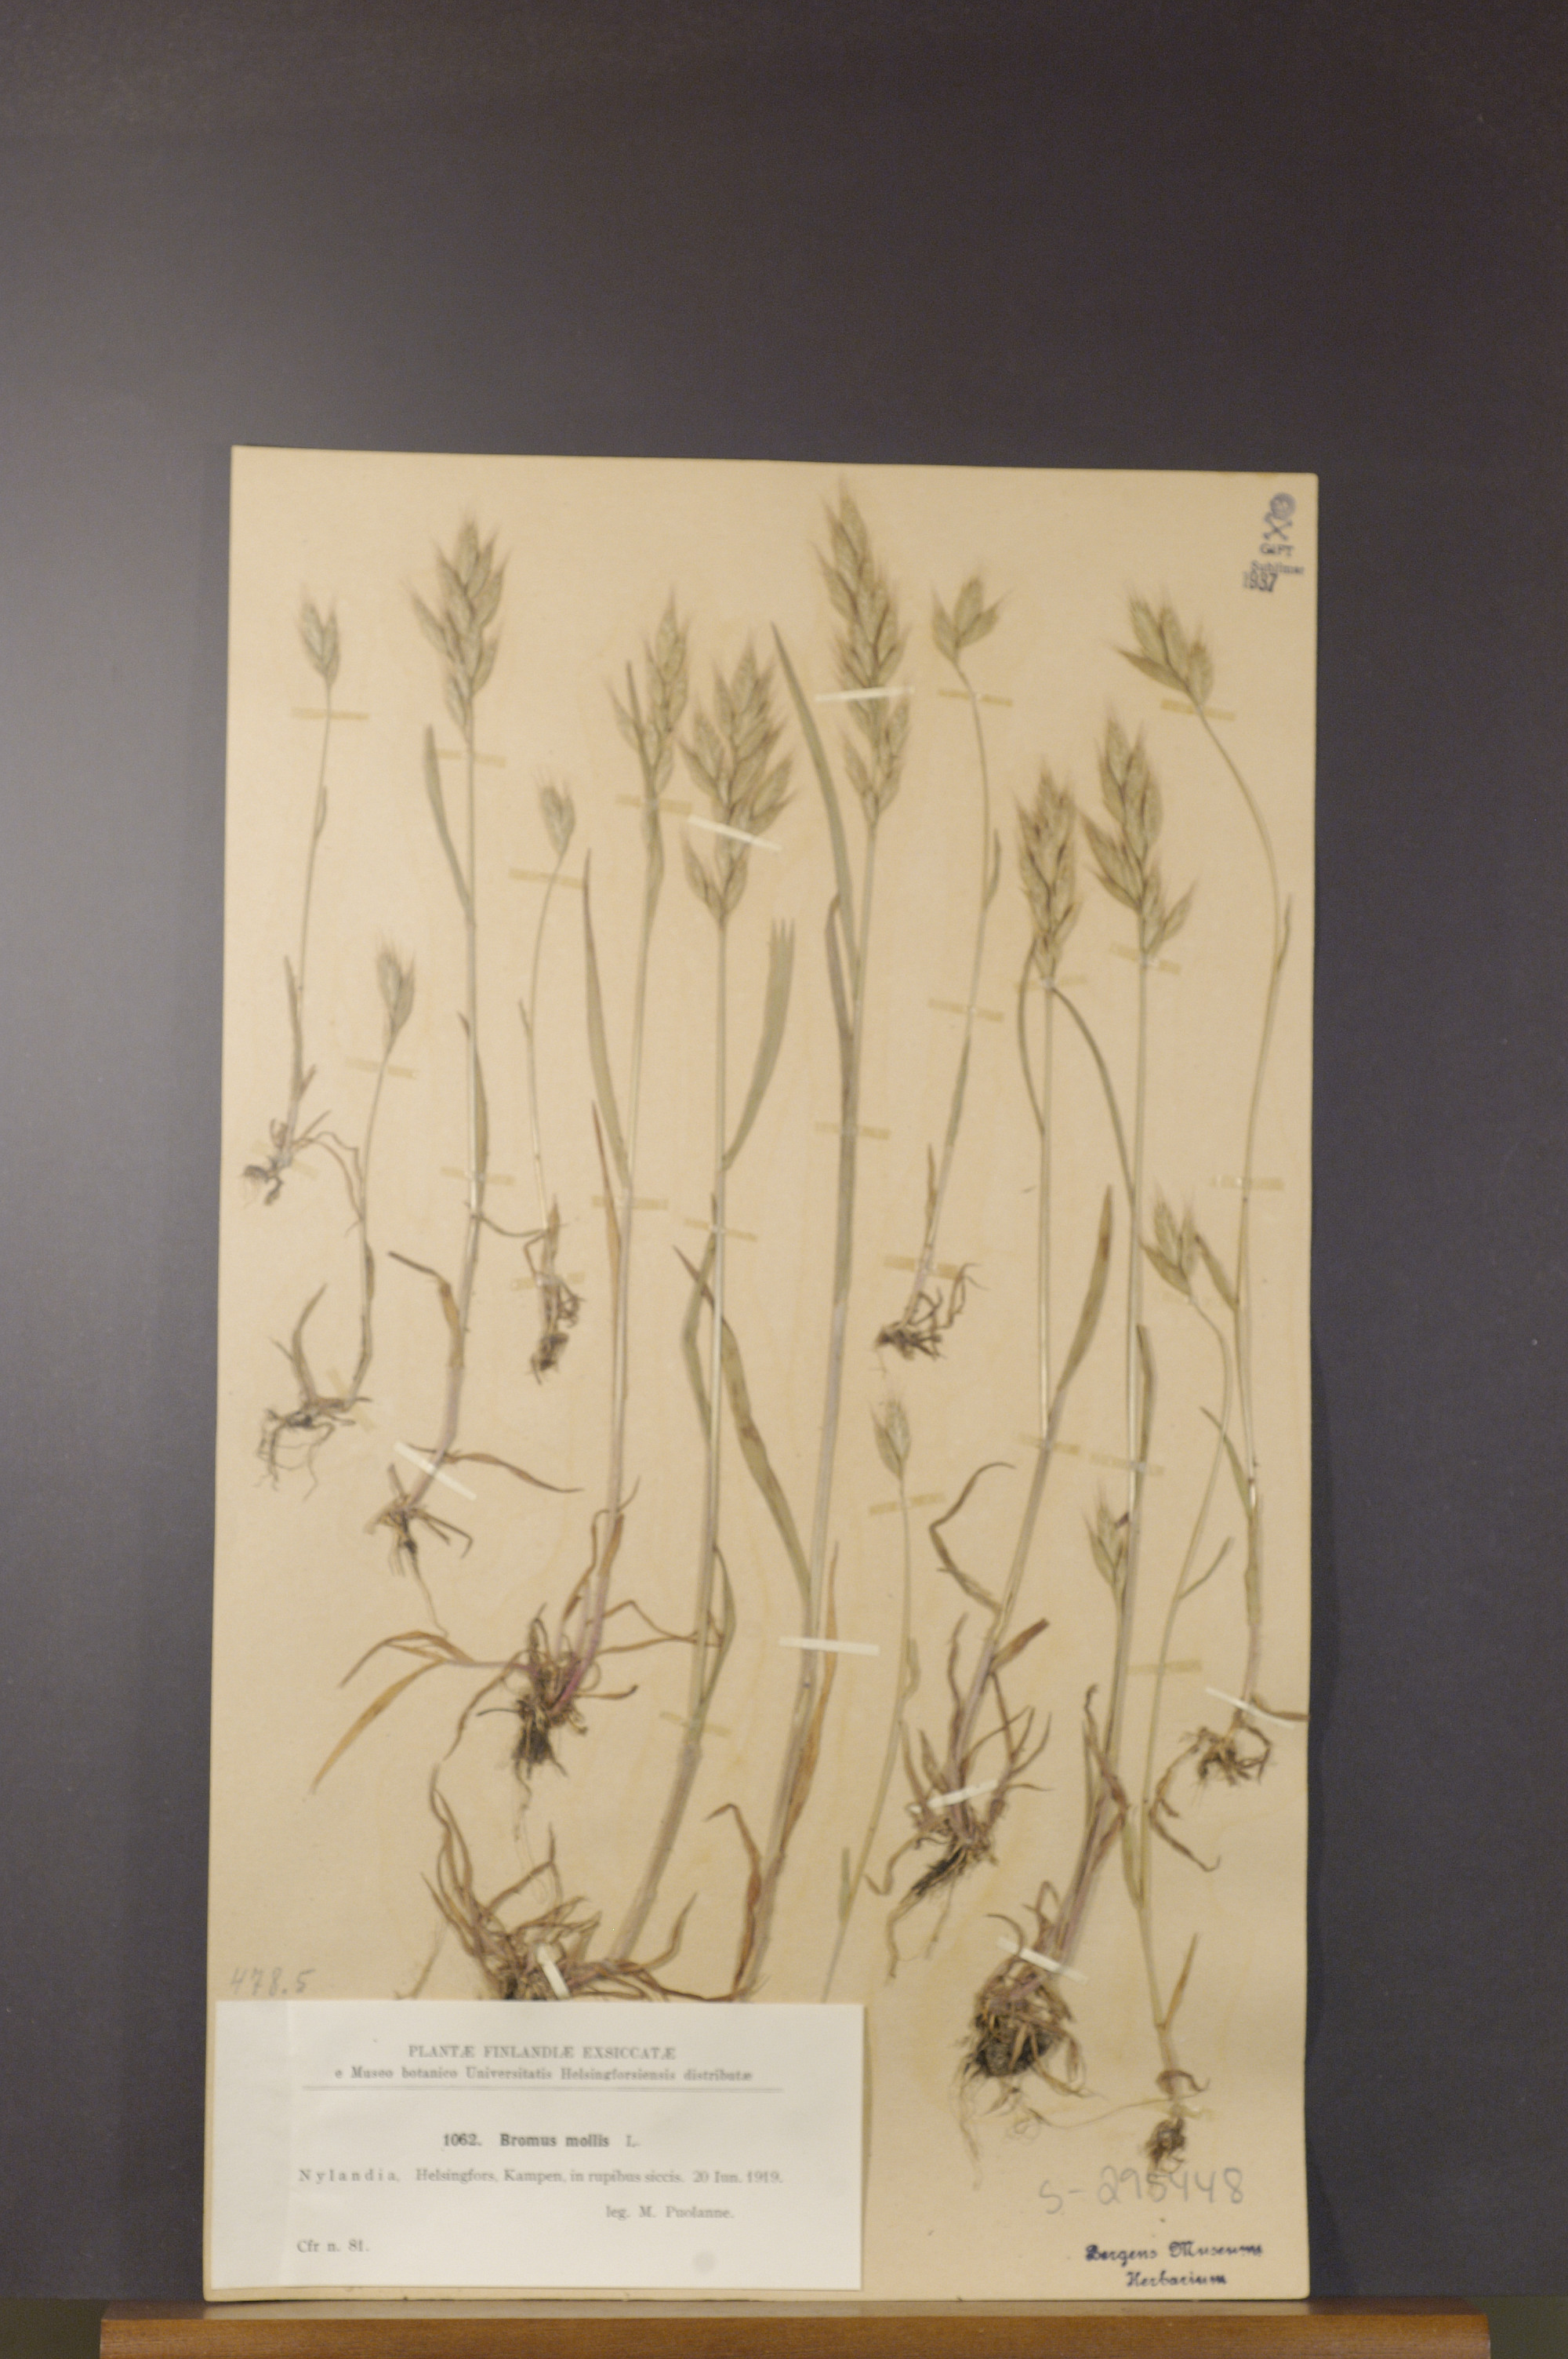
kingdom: Plantae
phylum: Tracheophyta
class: Liliopsida
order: Poales
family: Poaceae
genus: Bromus
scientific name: Bromus hordeaceus
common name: Soft brome
